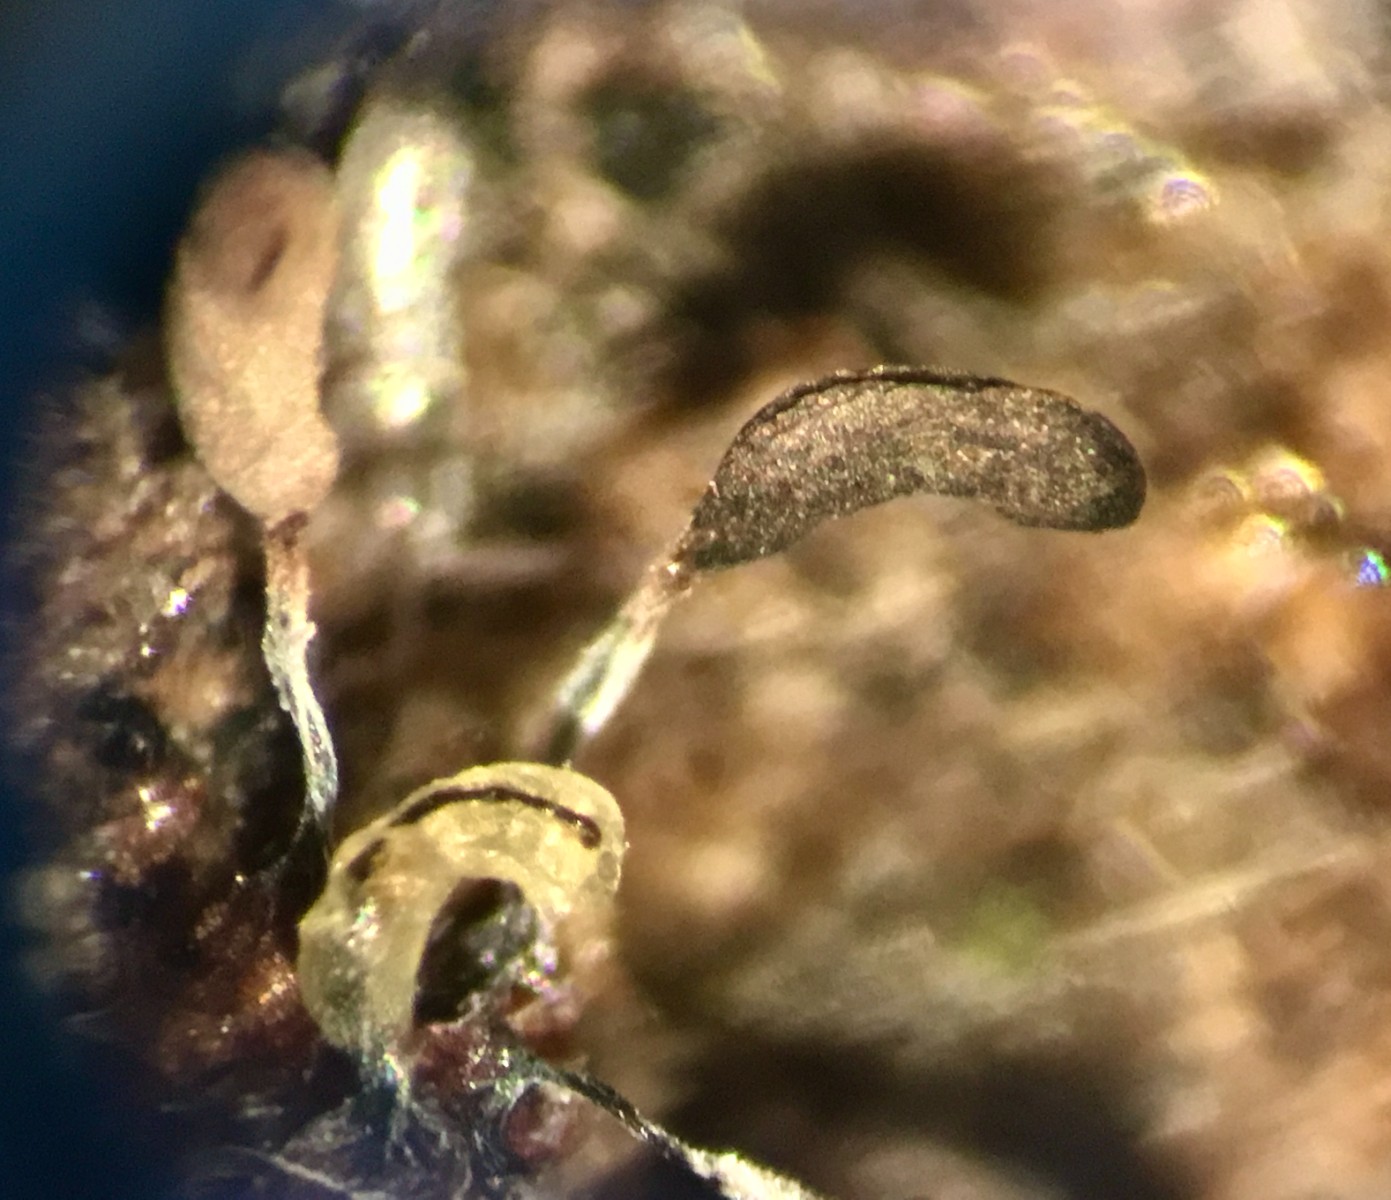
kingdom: Protozoa
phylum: Mycetozoa
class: Myxomycetes
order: Stemonitidales
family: Stemonitidaceae
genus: Stemonitopsis
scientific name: Stemonitopsis typhina
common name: skinnende støvkølle
